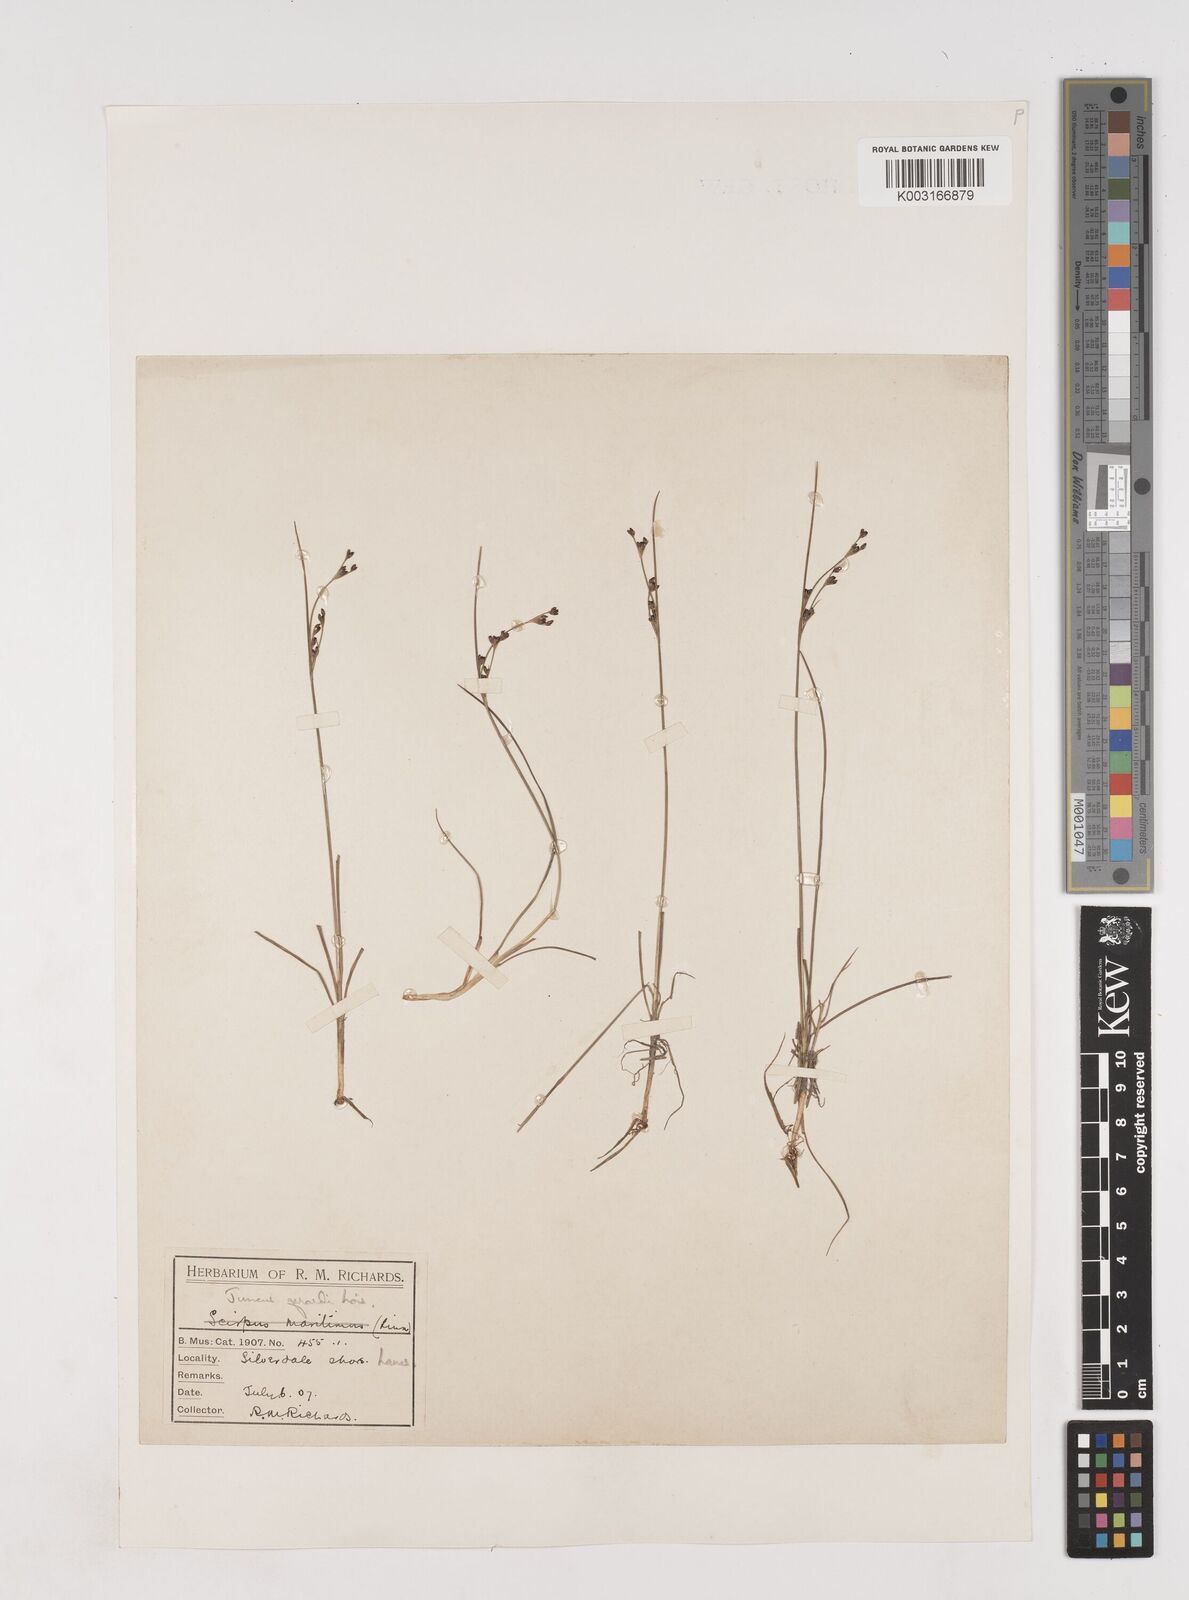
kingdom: Plantae
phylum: Tracheophyta
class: Liliopsida
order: Poales
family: Juncaceae
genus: Juncus
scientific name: Juncus gerardi
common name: Saltmarsh rush
